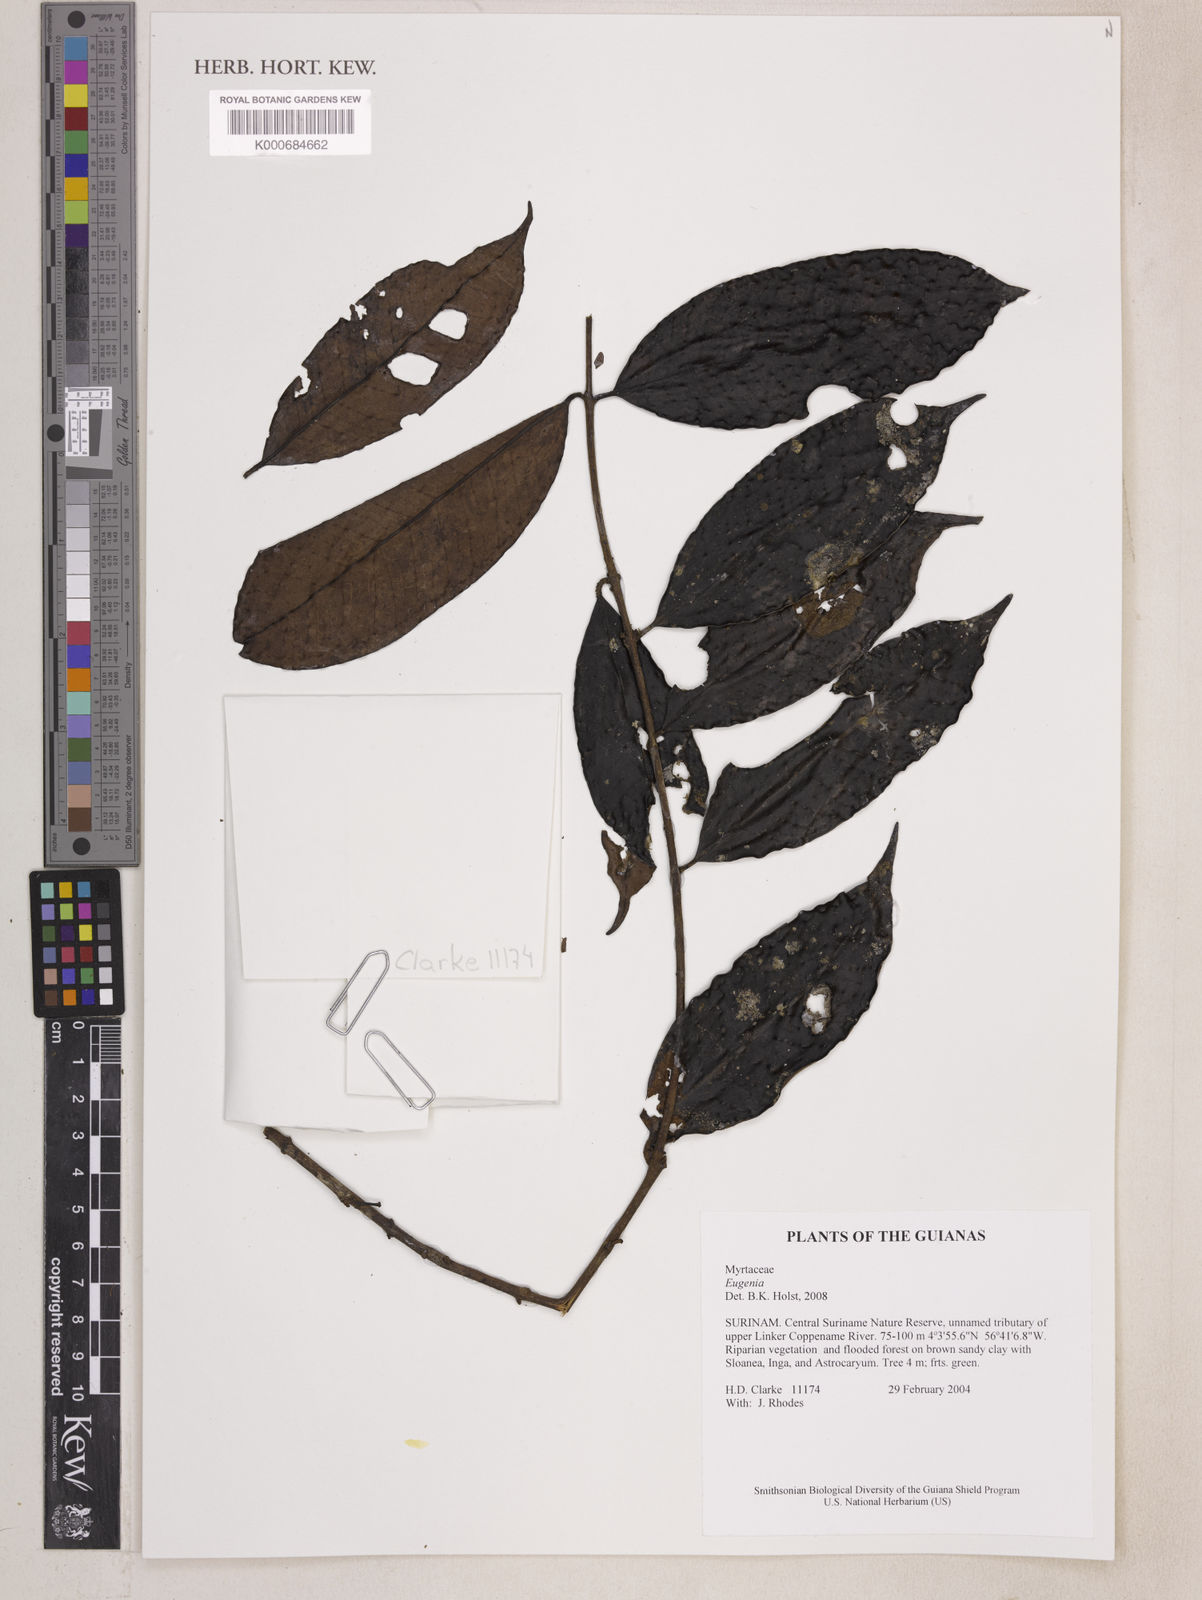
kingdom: Plantae
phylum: Tracheophyta
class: Magnoliopsida
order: Myrtales
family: Myrtaceae
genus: Eugenia
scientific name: Eugenia
